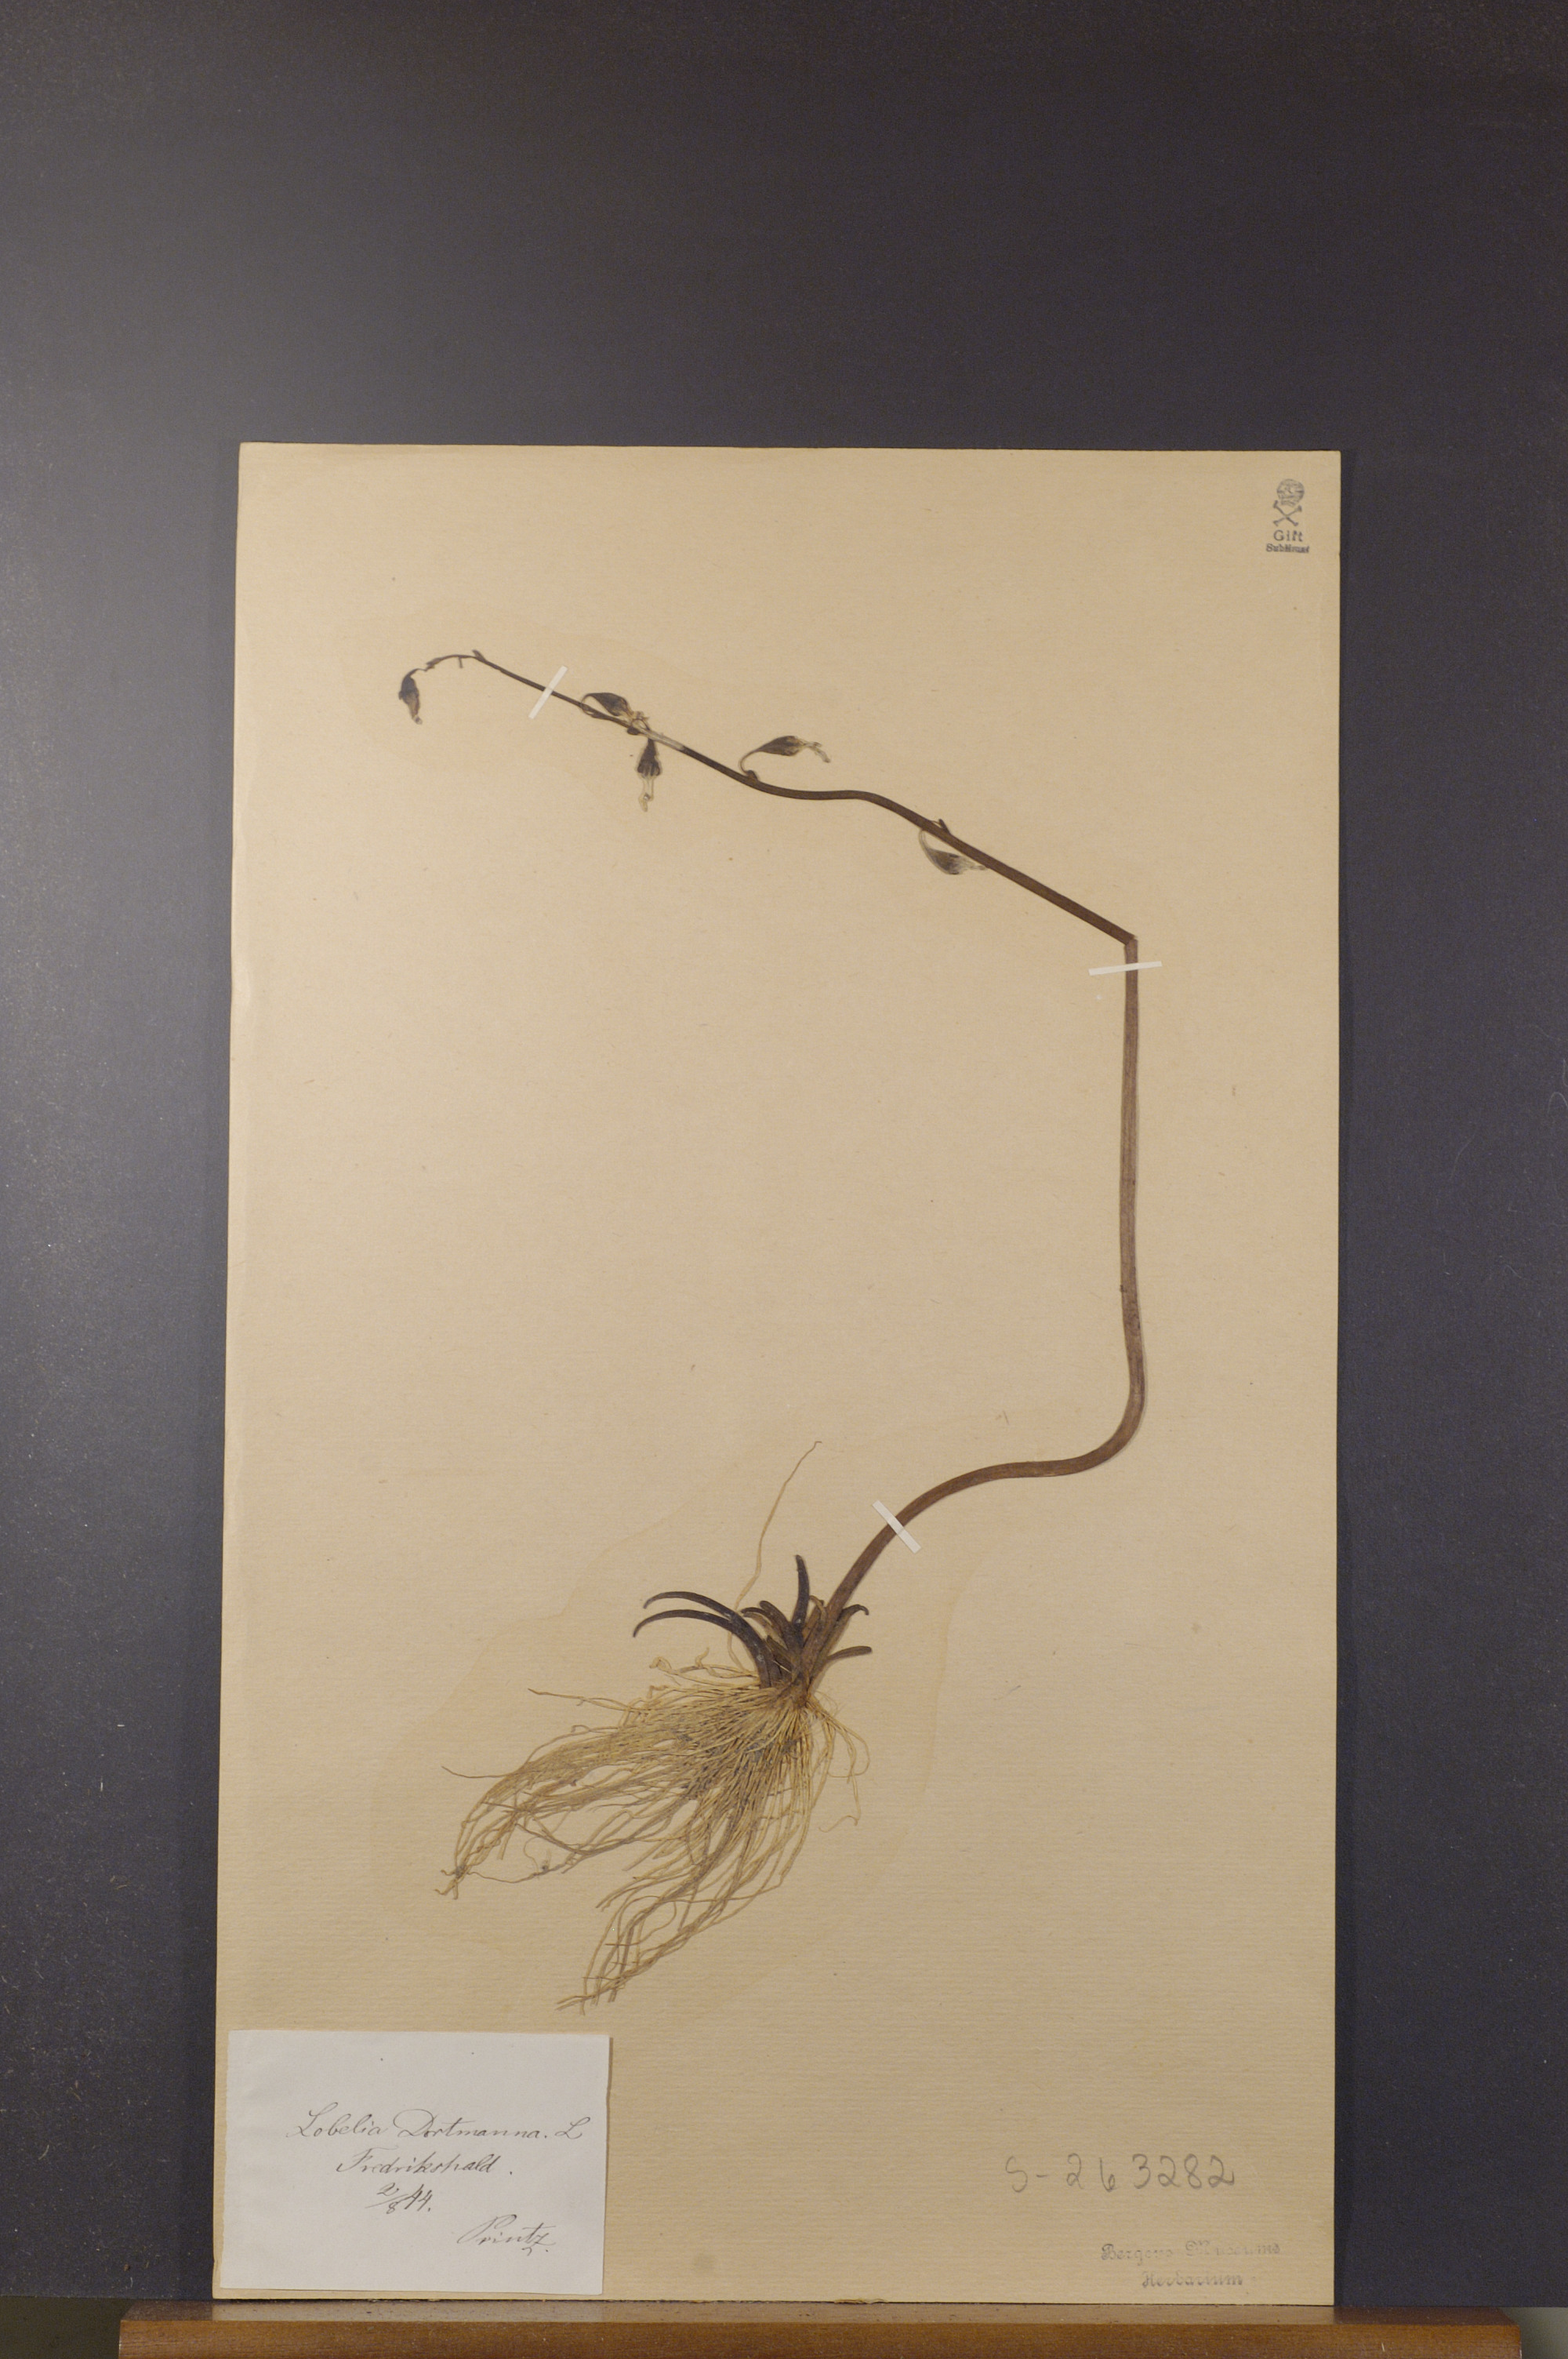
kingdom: Plantae
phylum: Tracheophyta
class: Magnoliopsida
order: Asterales
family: Campanulaceae
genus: Lobelia
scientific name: Lobelia dortmanna
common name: Water lobelia
